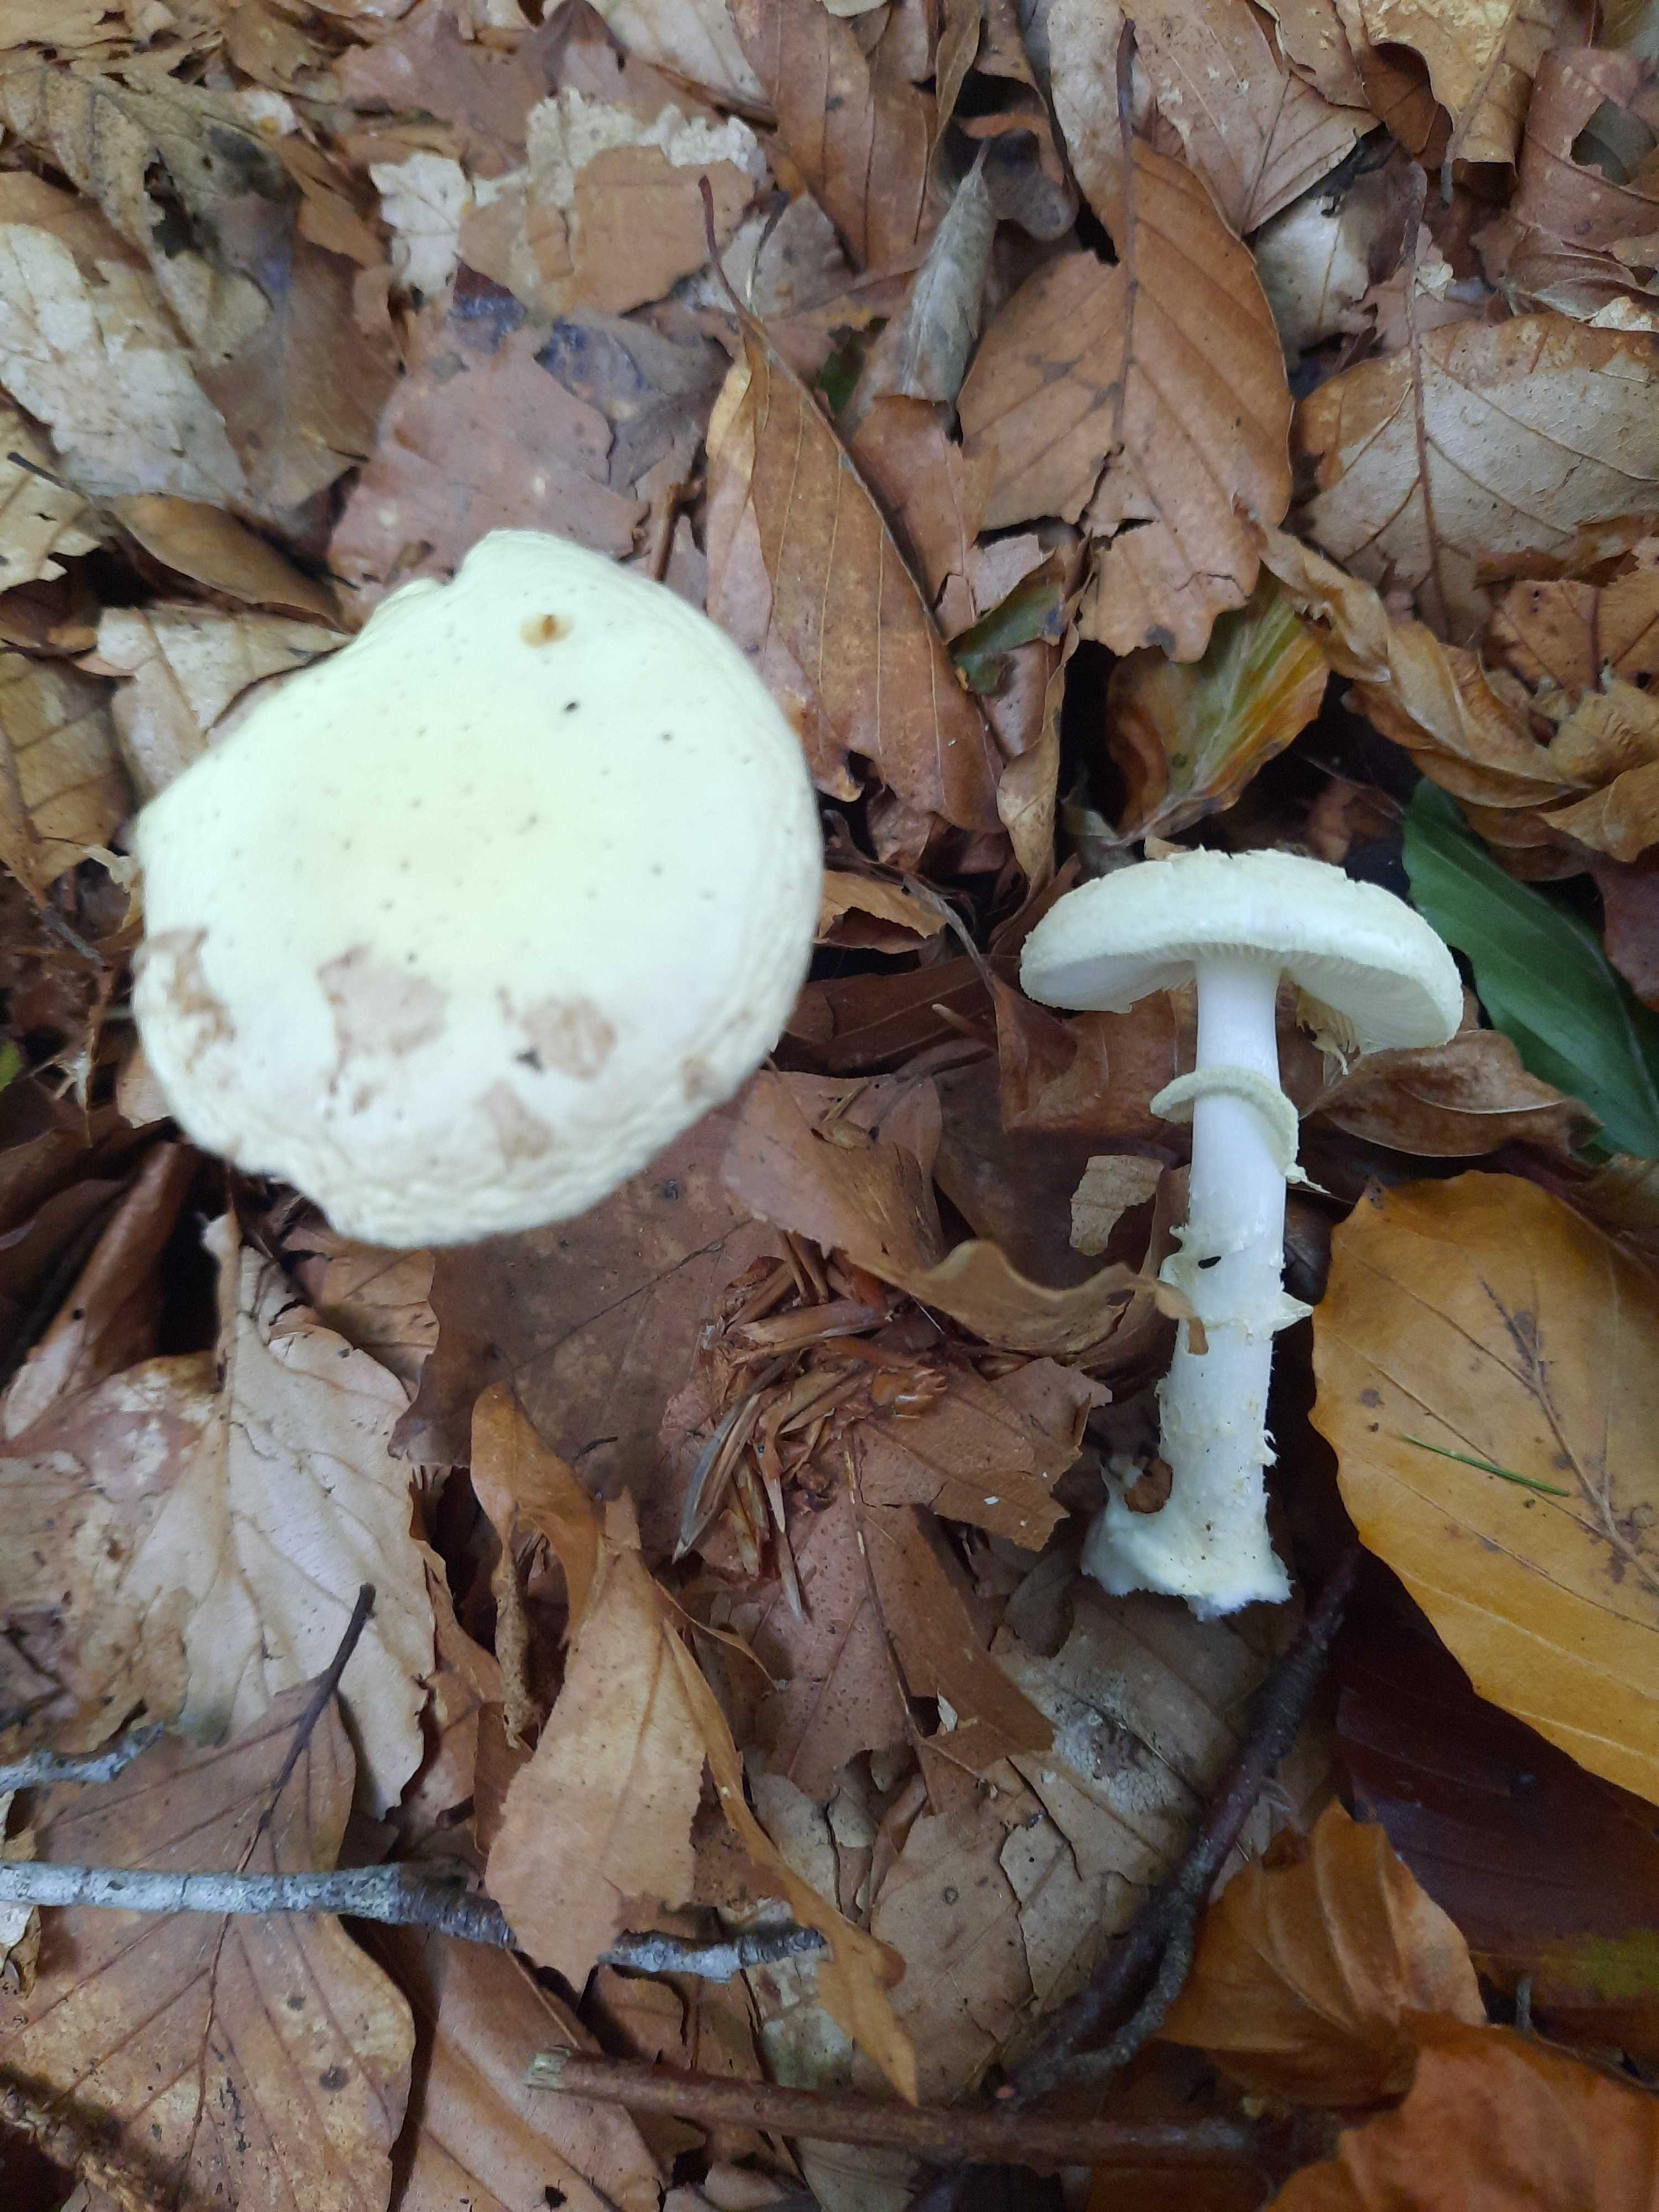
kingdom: Fungi
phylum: Basidiomycota
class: Agaricomycetes
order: Agaricales
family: Amanitaceae
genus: Amanita
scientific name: Amanita citrina
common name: kugleknoldet fluesvamp
